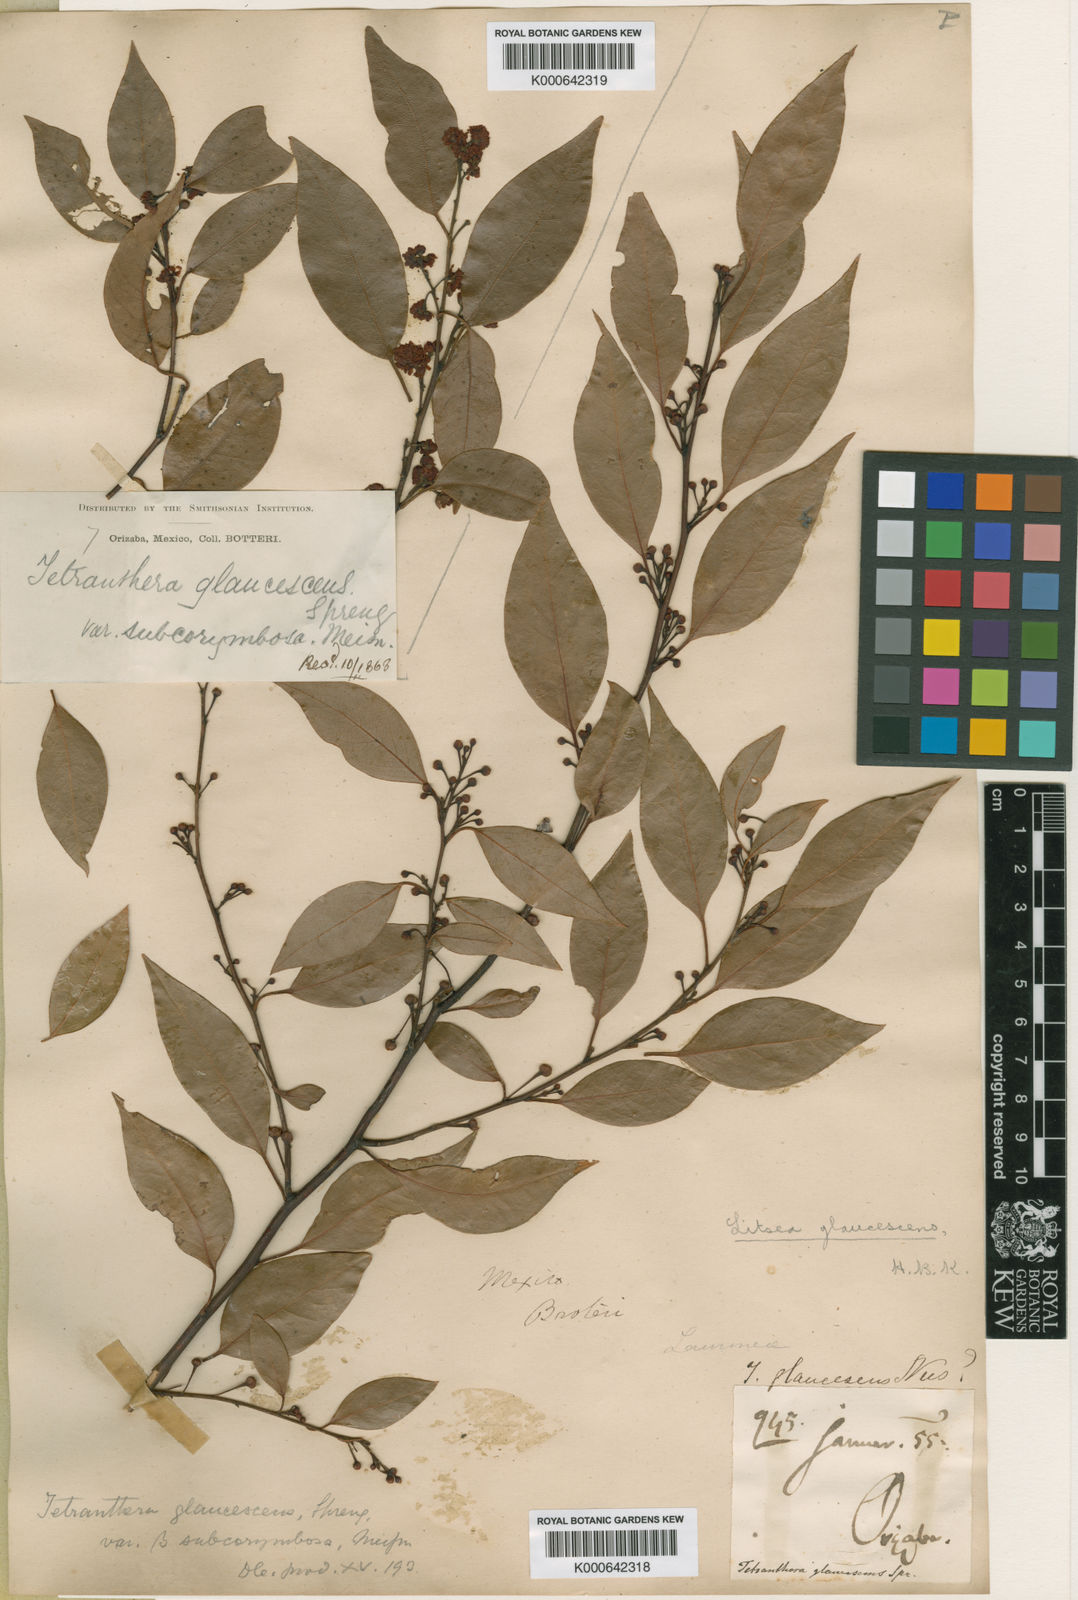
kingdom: Plantae
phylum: Tracheophyta
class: Magnoliopsida
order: Laurales
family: Lauraceae
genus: Licaria
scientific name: Licaria triandra
